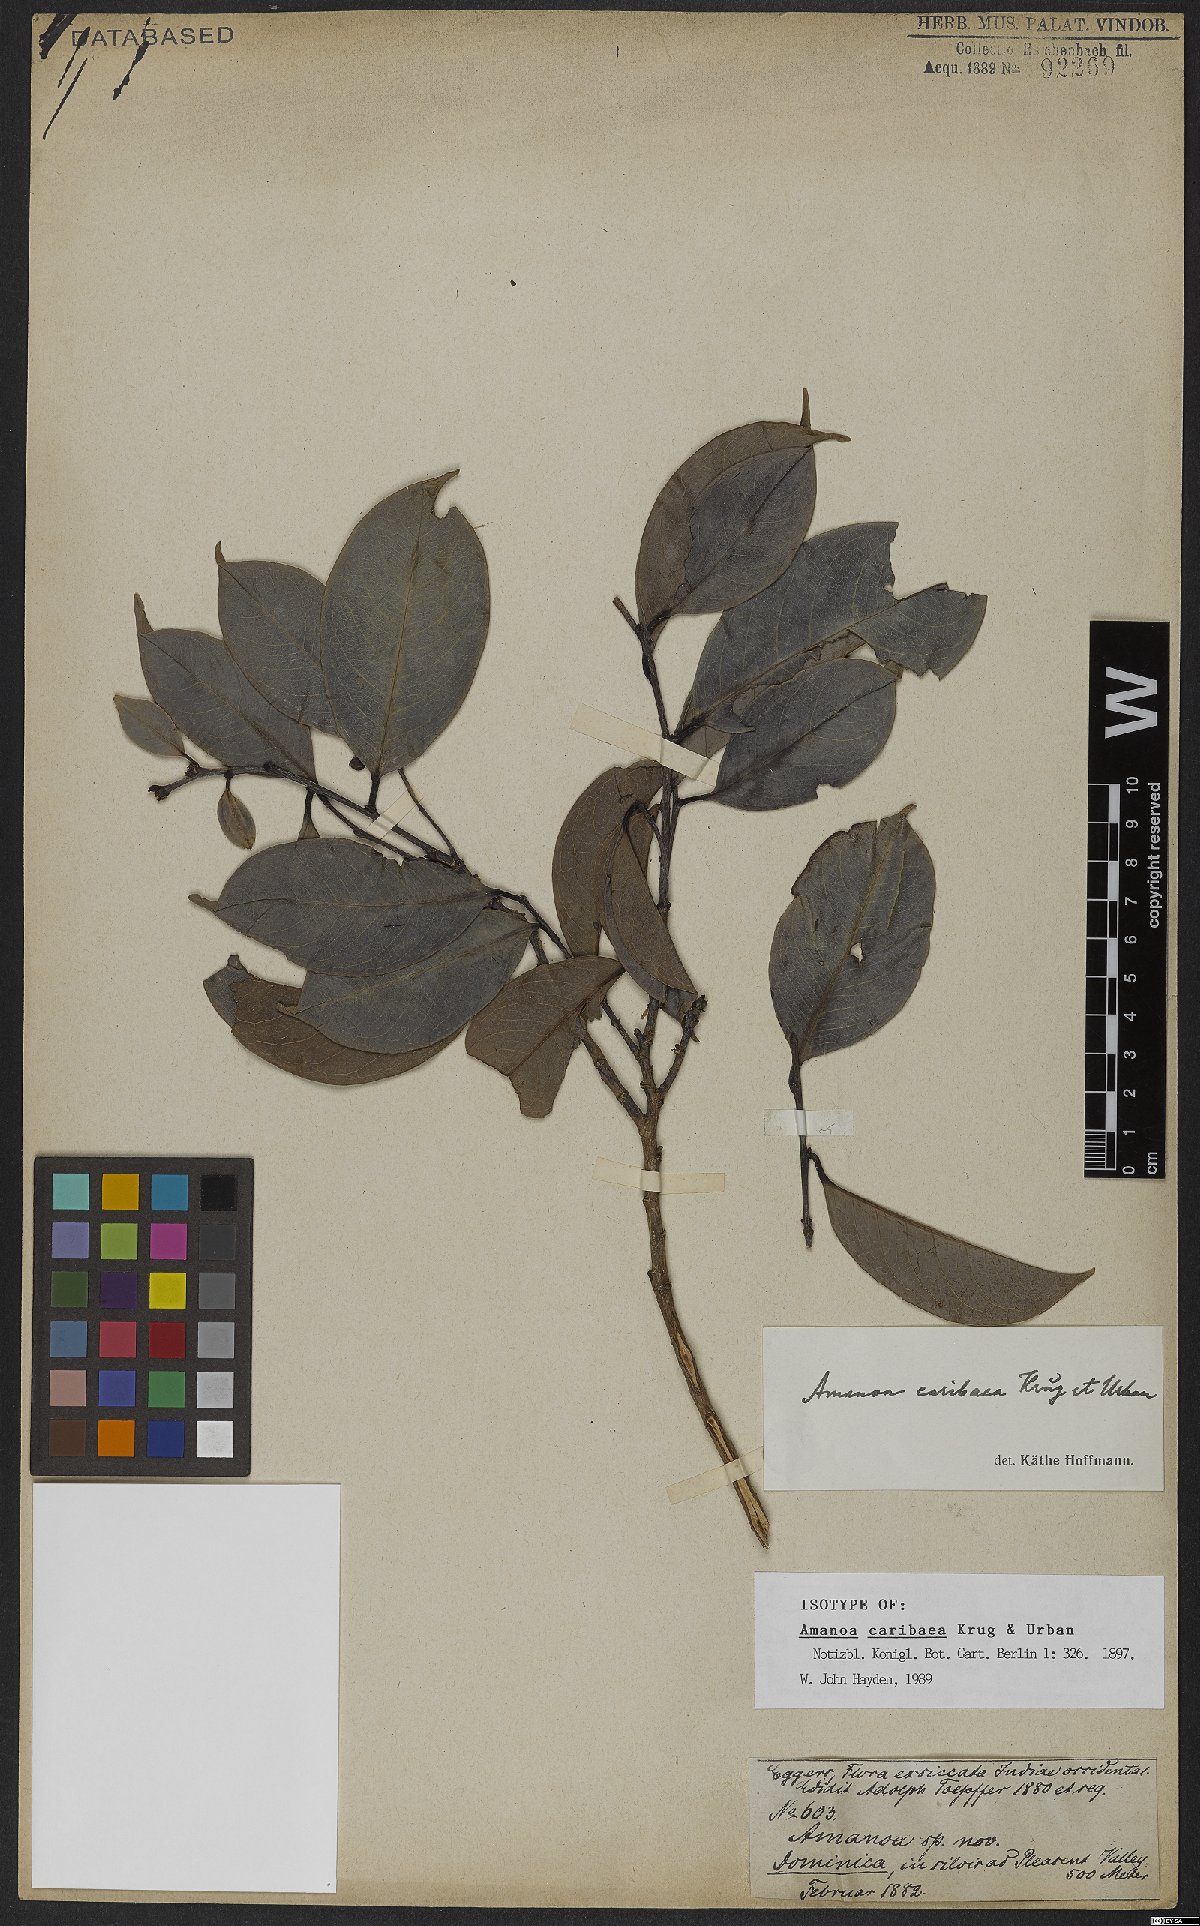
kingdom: Plantae
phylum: Tracheophyta
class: Magnoliopsida
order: Malpighiales
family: Phyllanthaceae
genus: Amanoa
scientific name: Amanoa caribaea
